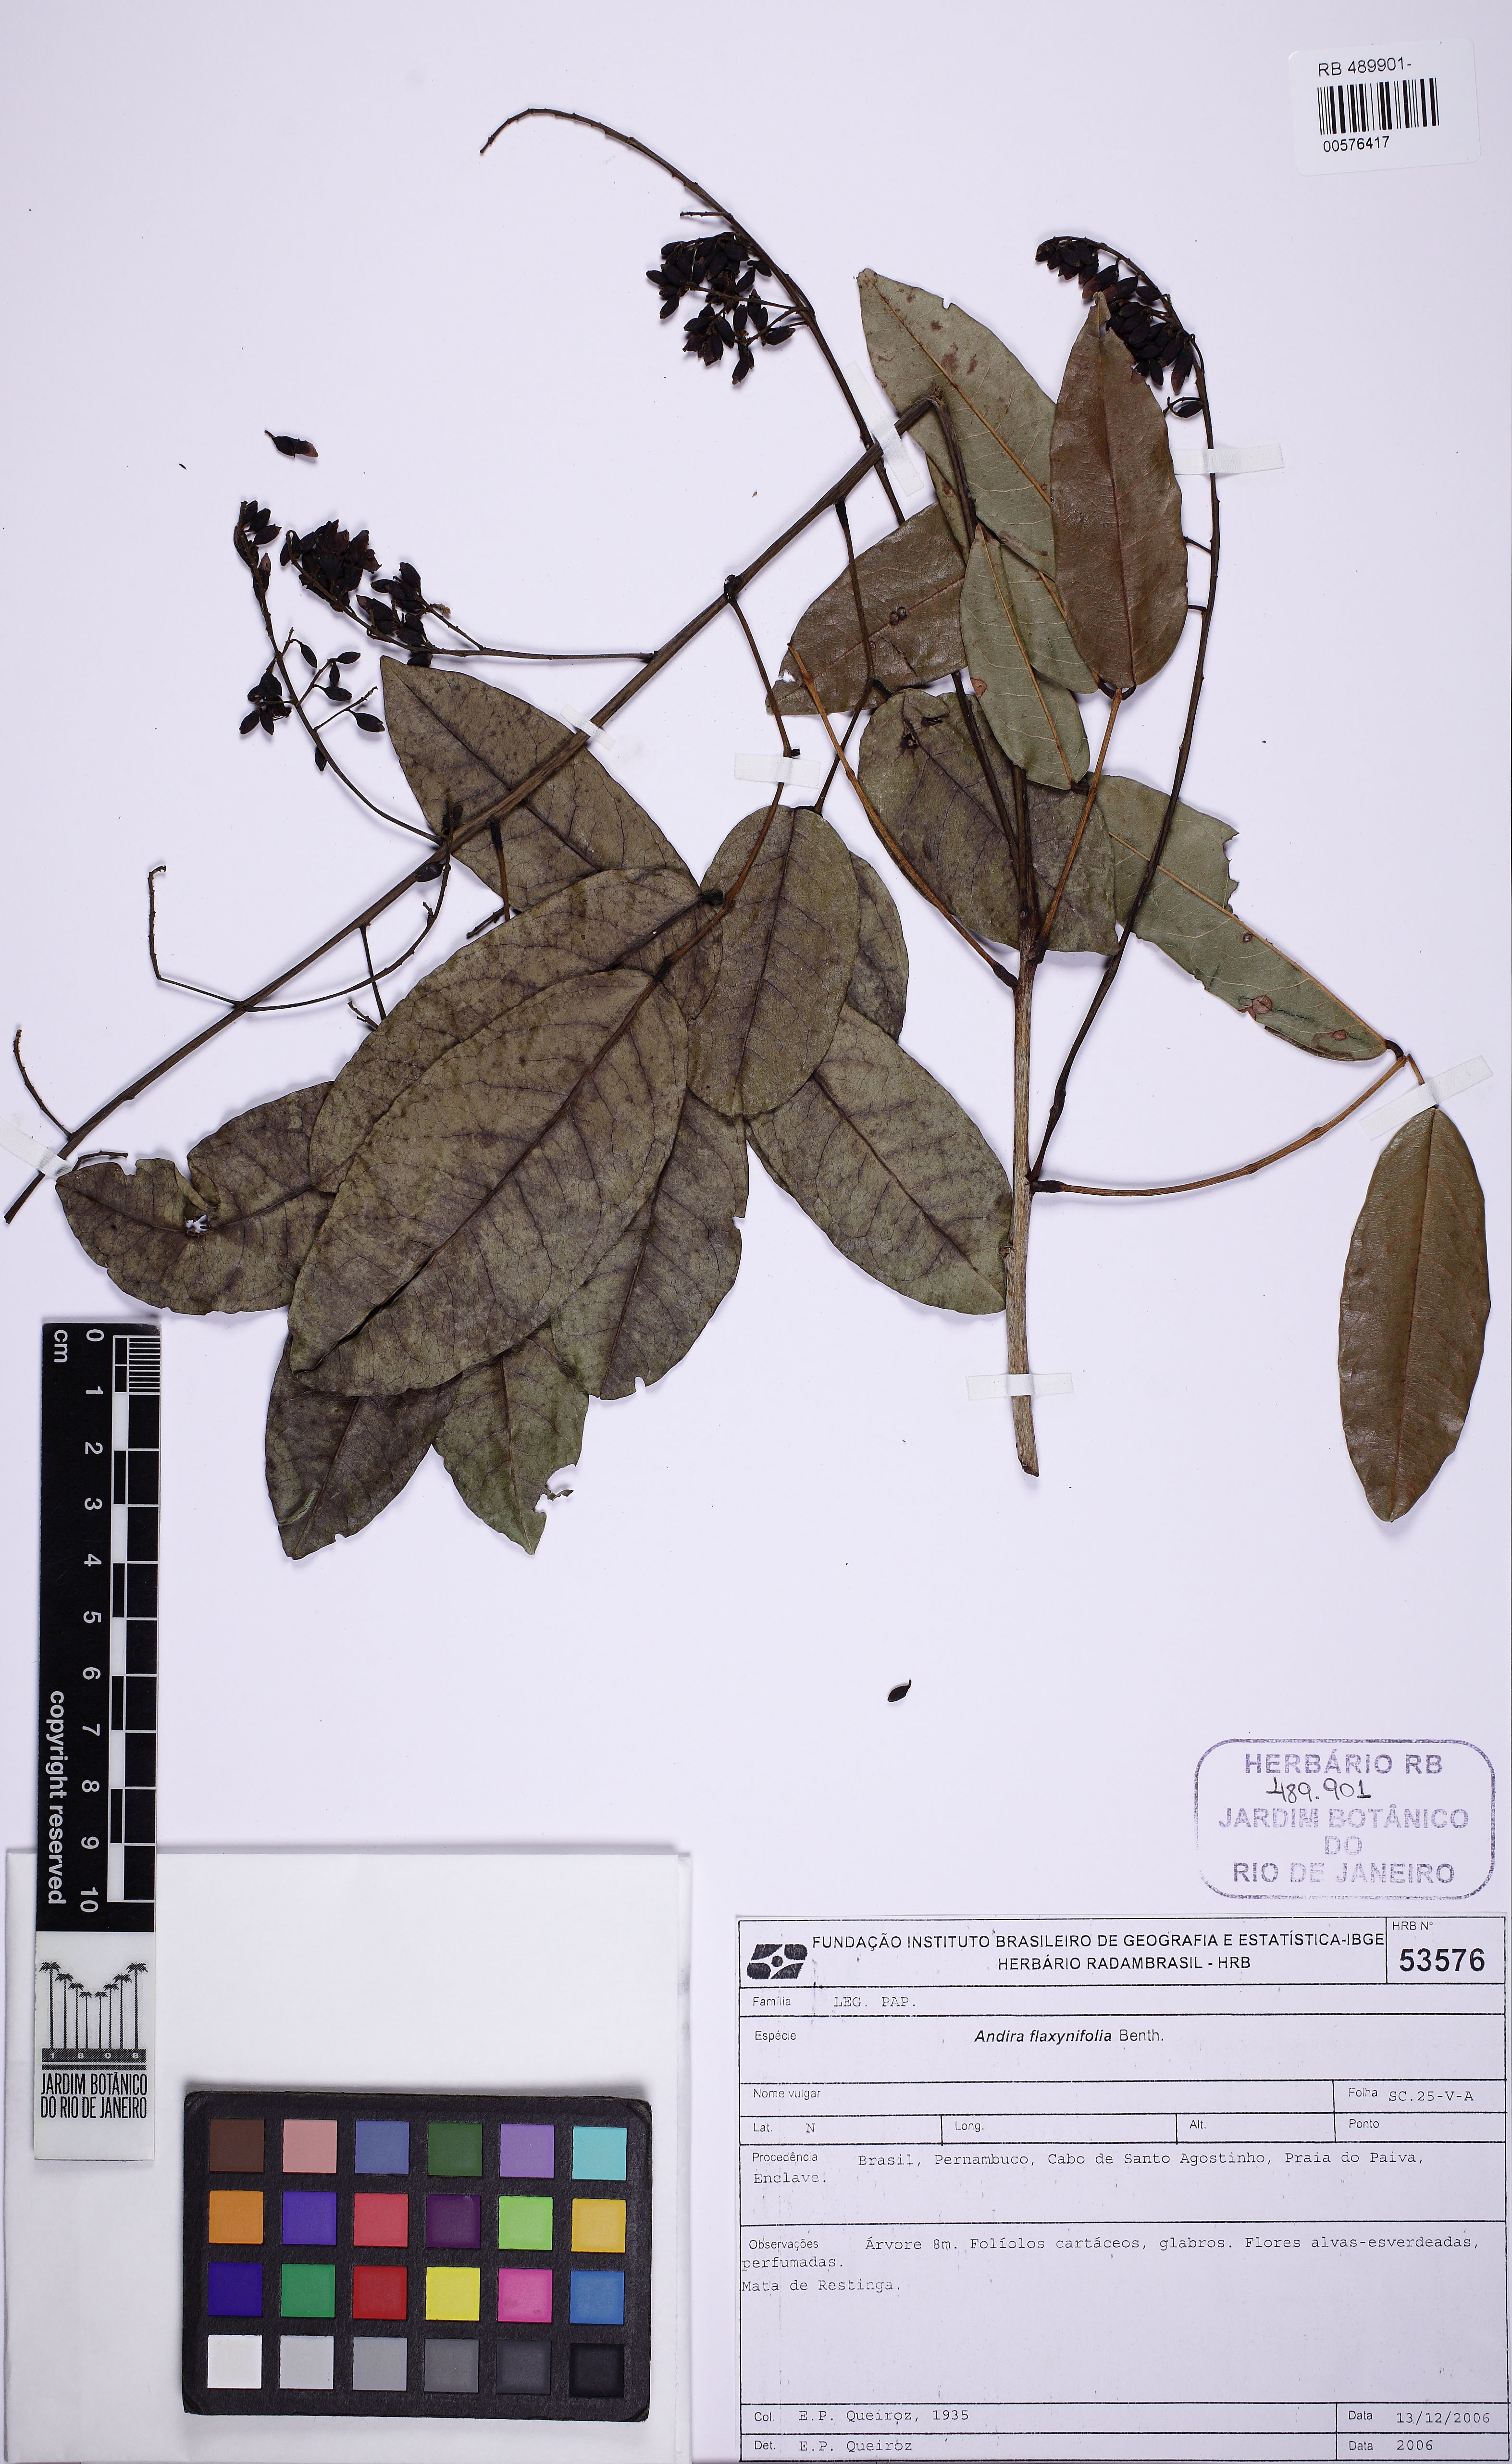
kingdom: Plantae
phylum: Tracheophyta
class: Magnoliopsida
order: Fabales
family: Fabaceae
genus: Andira
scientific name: Andira fraxinifolia
